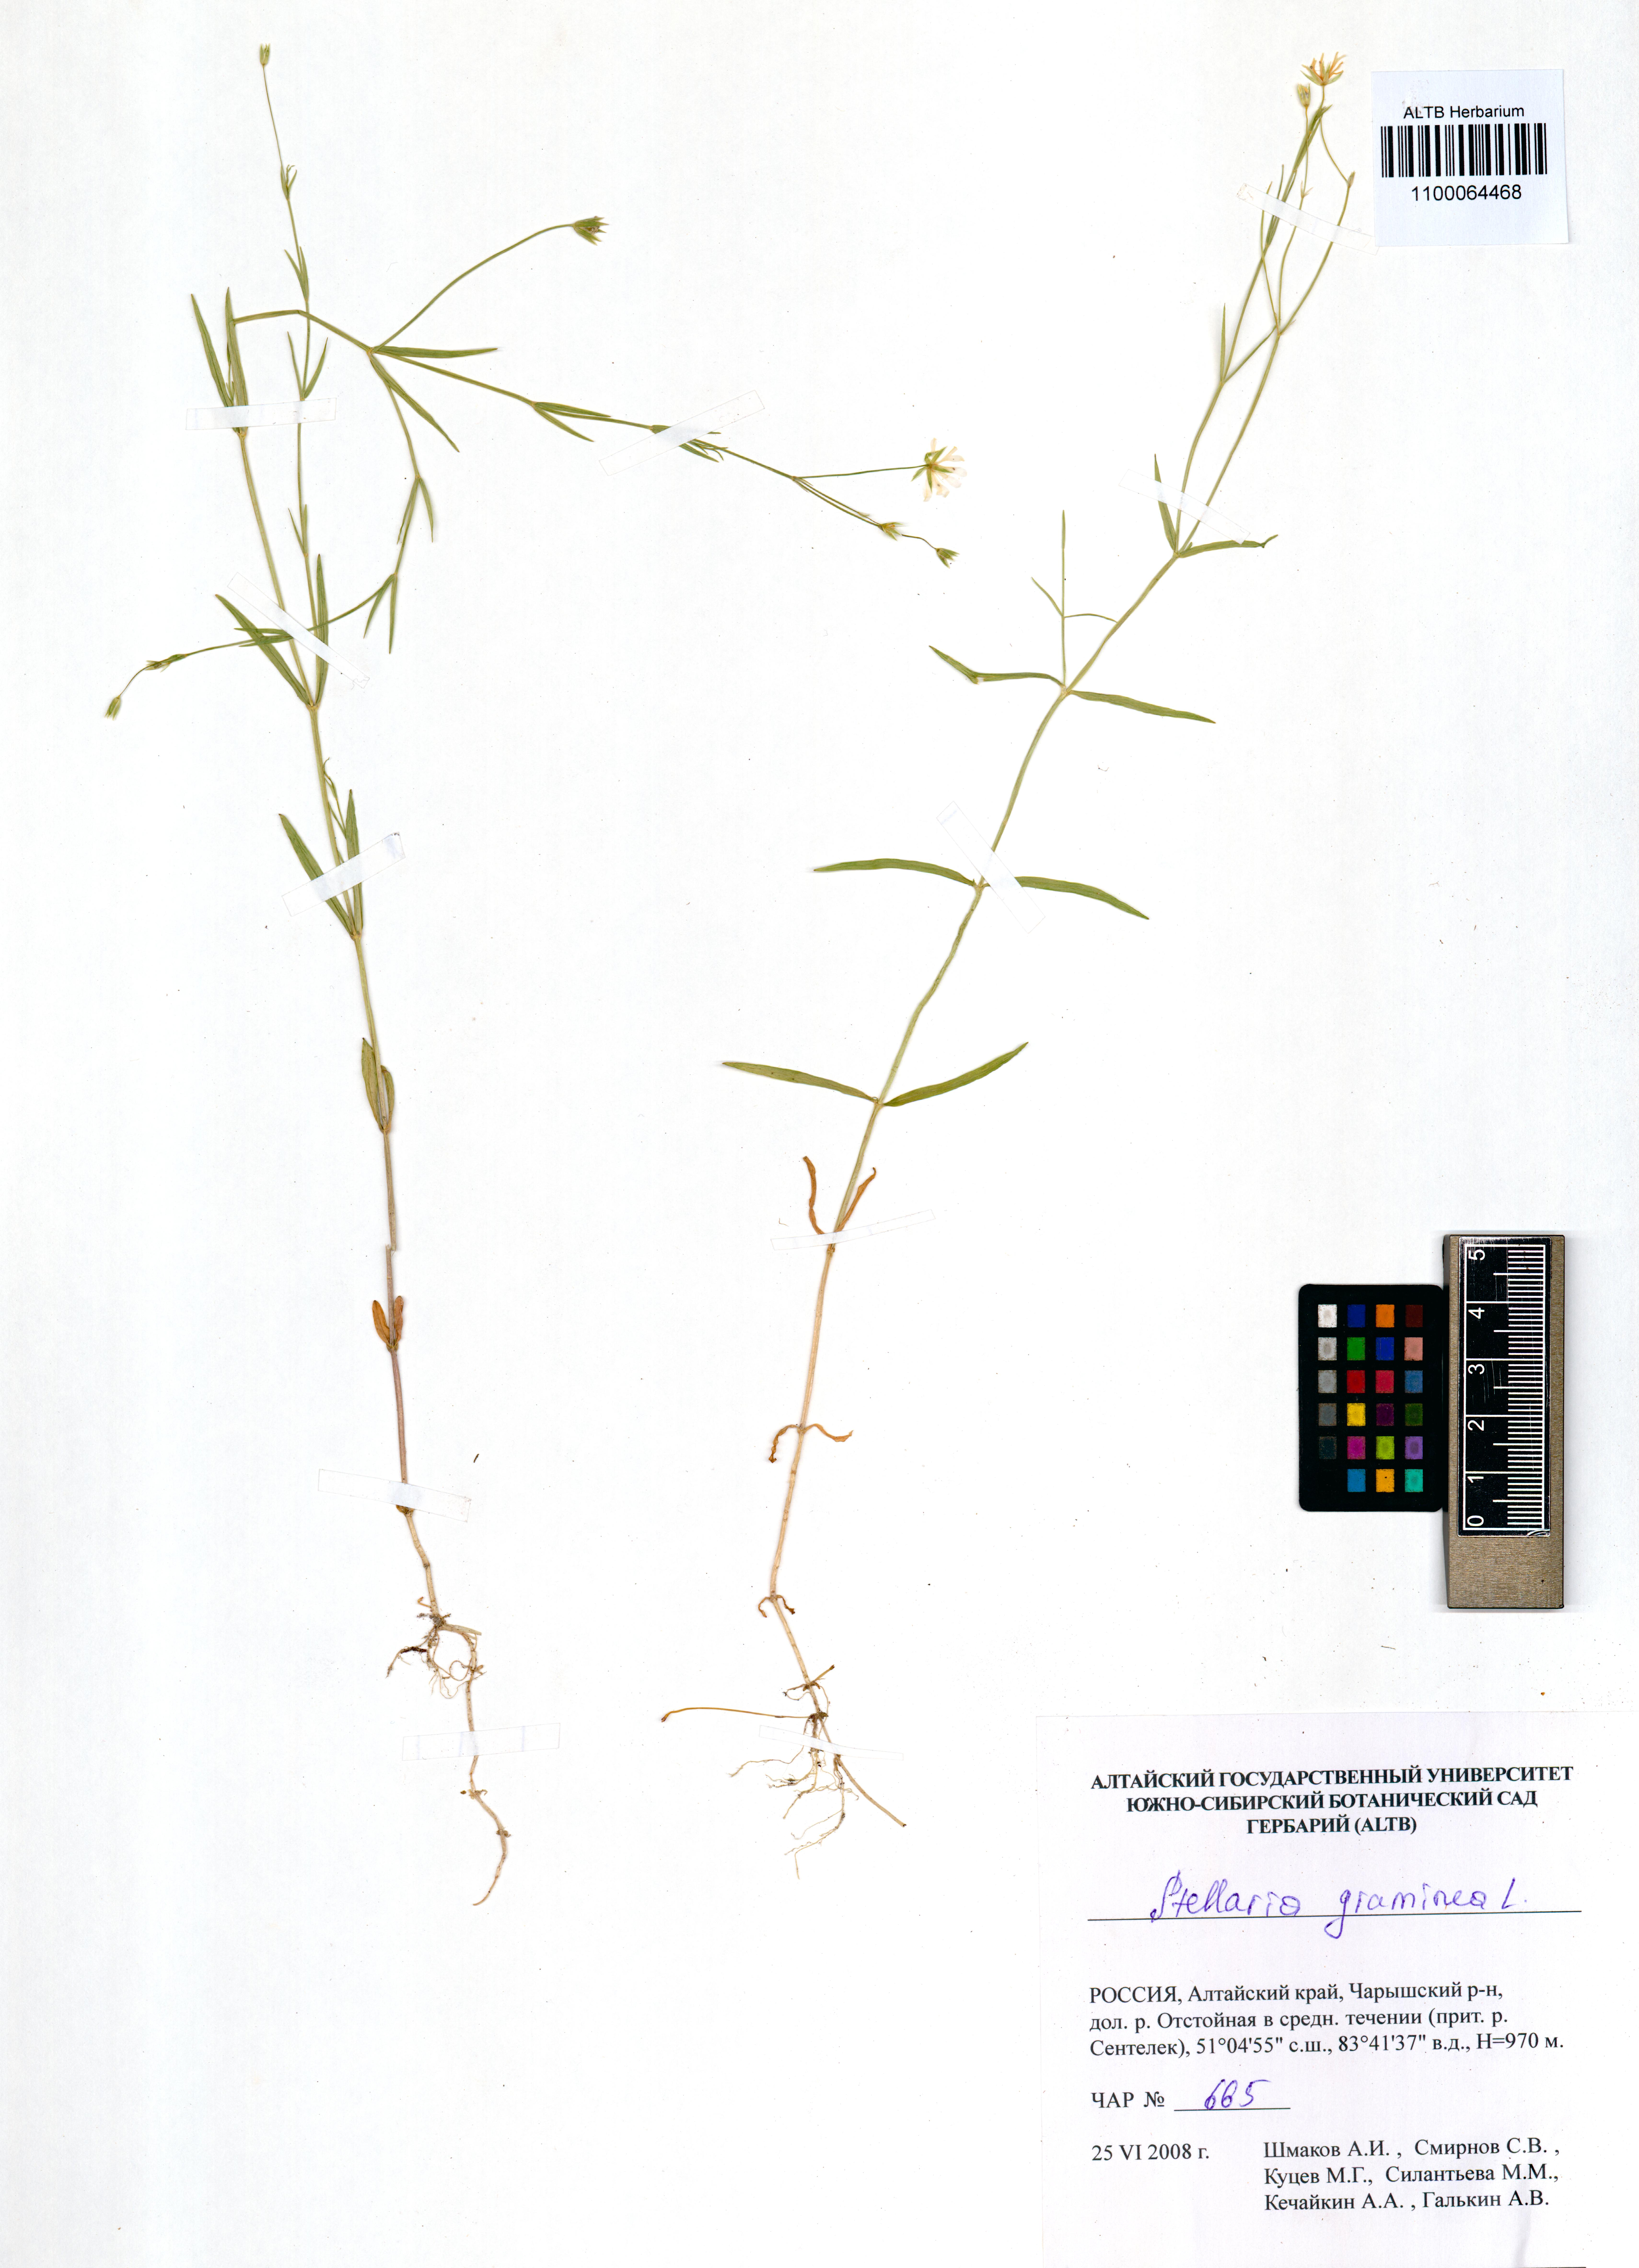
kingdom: Plantae
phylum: Tracheophyta
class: Magnoliopsida
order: Caryophyllales
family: Caryophyllaceae
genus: Stellaria
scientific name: Stellaria graminea
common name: Grass-like starwort
